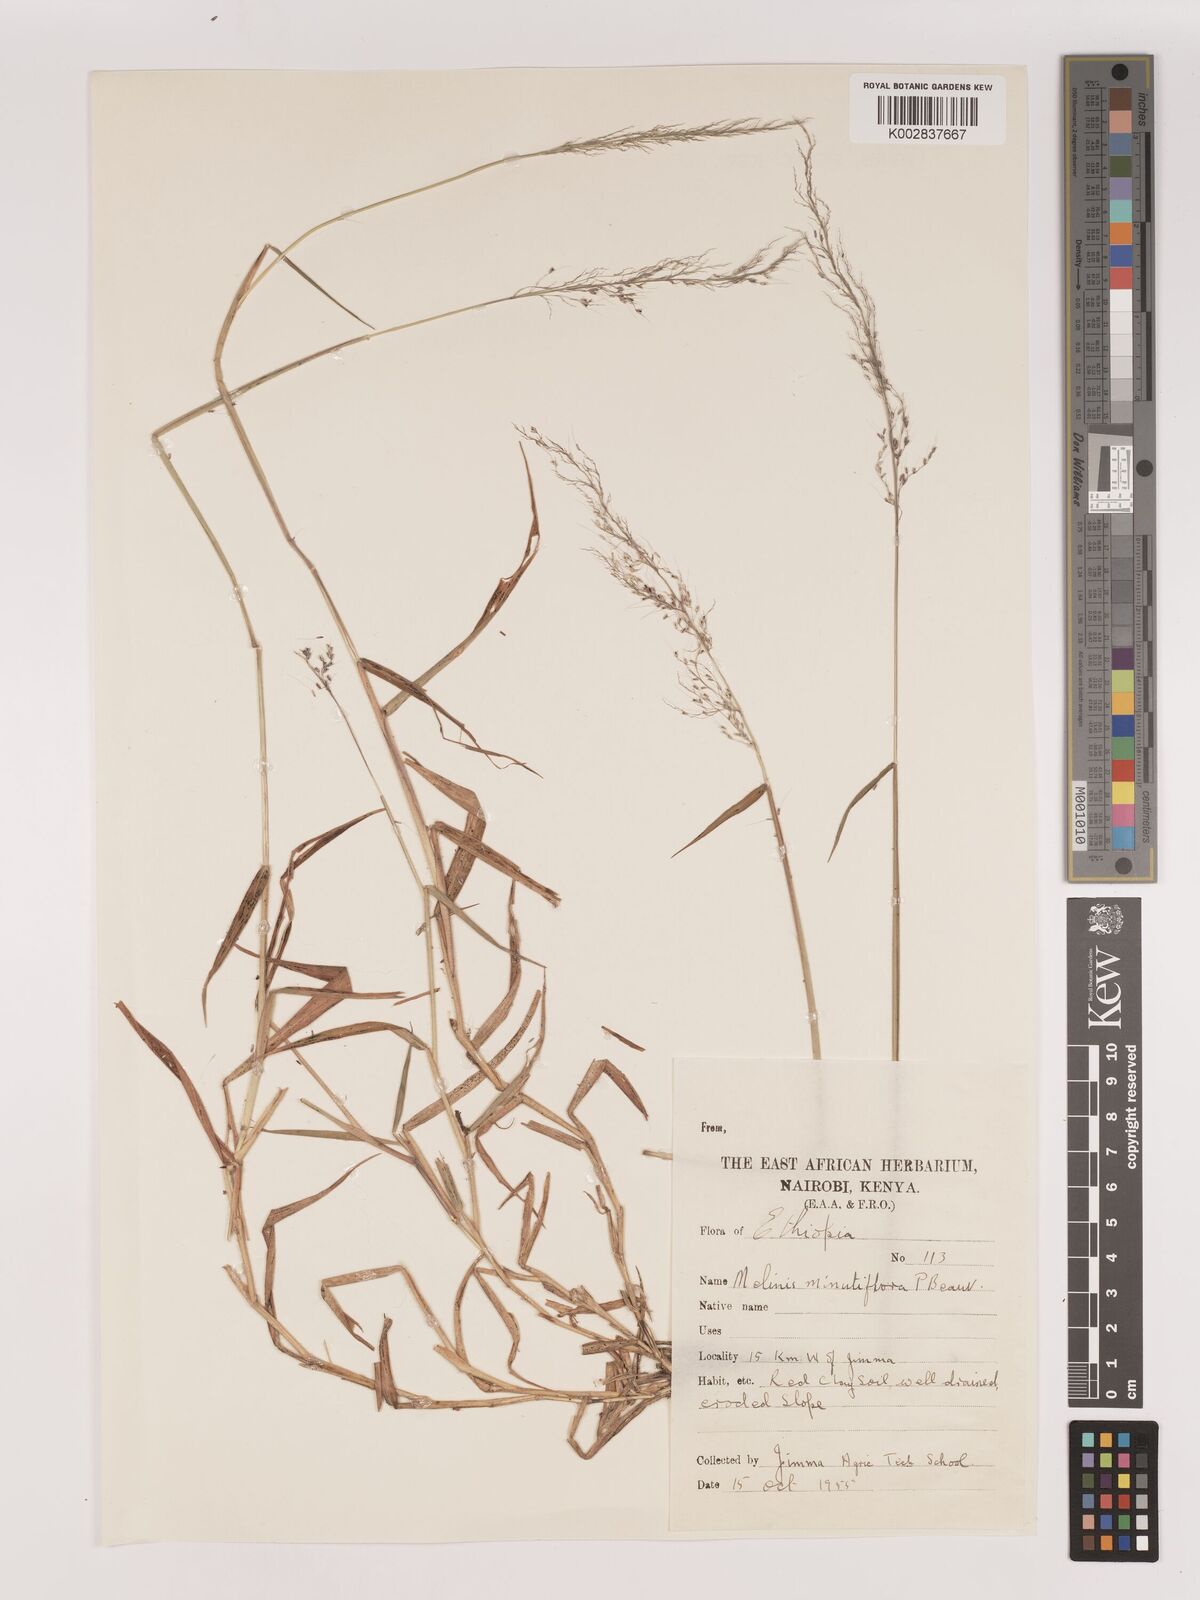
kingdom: Plantae
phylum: Tracheophyta
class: Liliopsida
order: Poales
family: Poaceae
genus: Melinis
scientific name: Melinis minutiflora
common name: Molassesgrass
